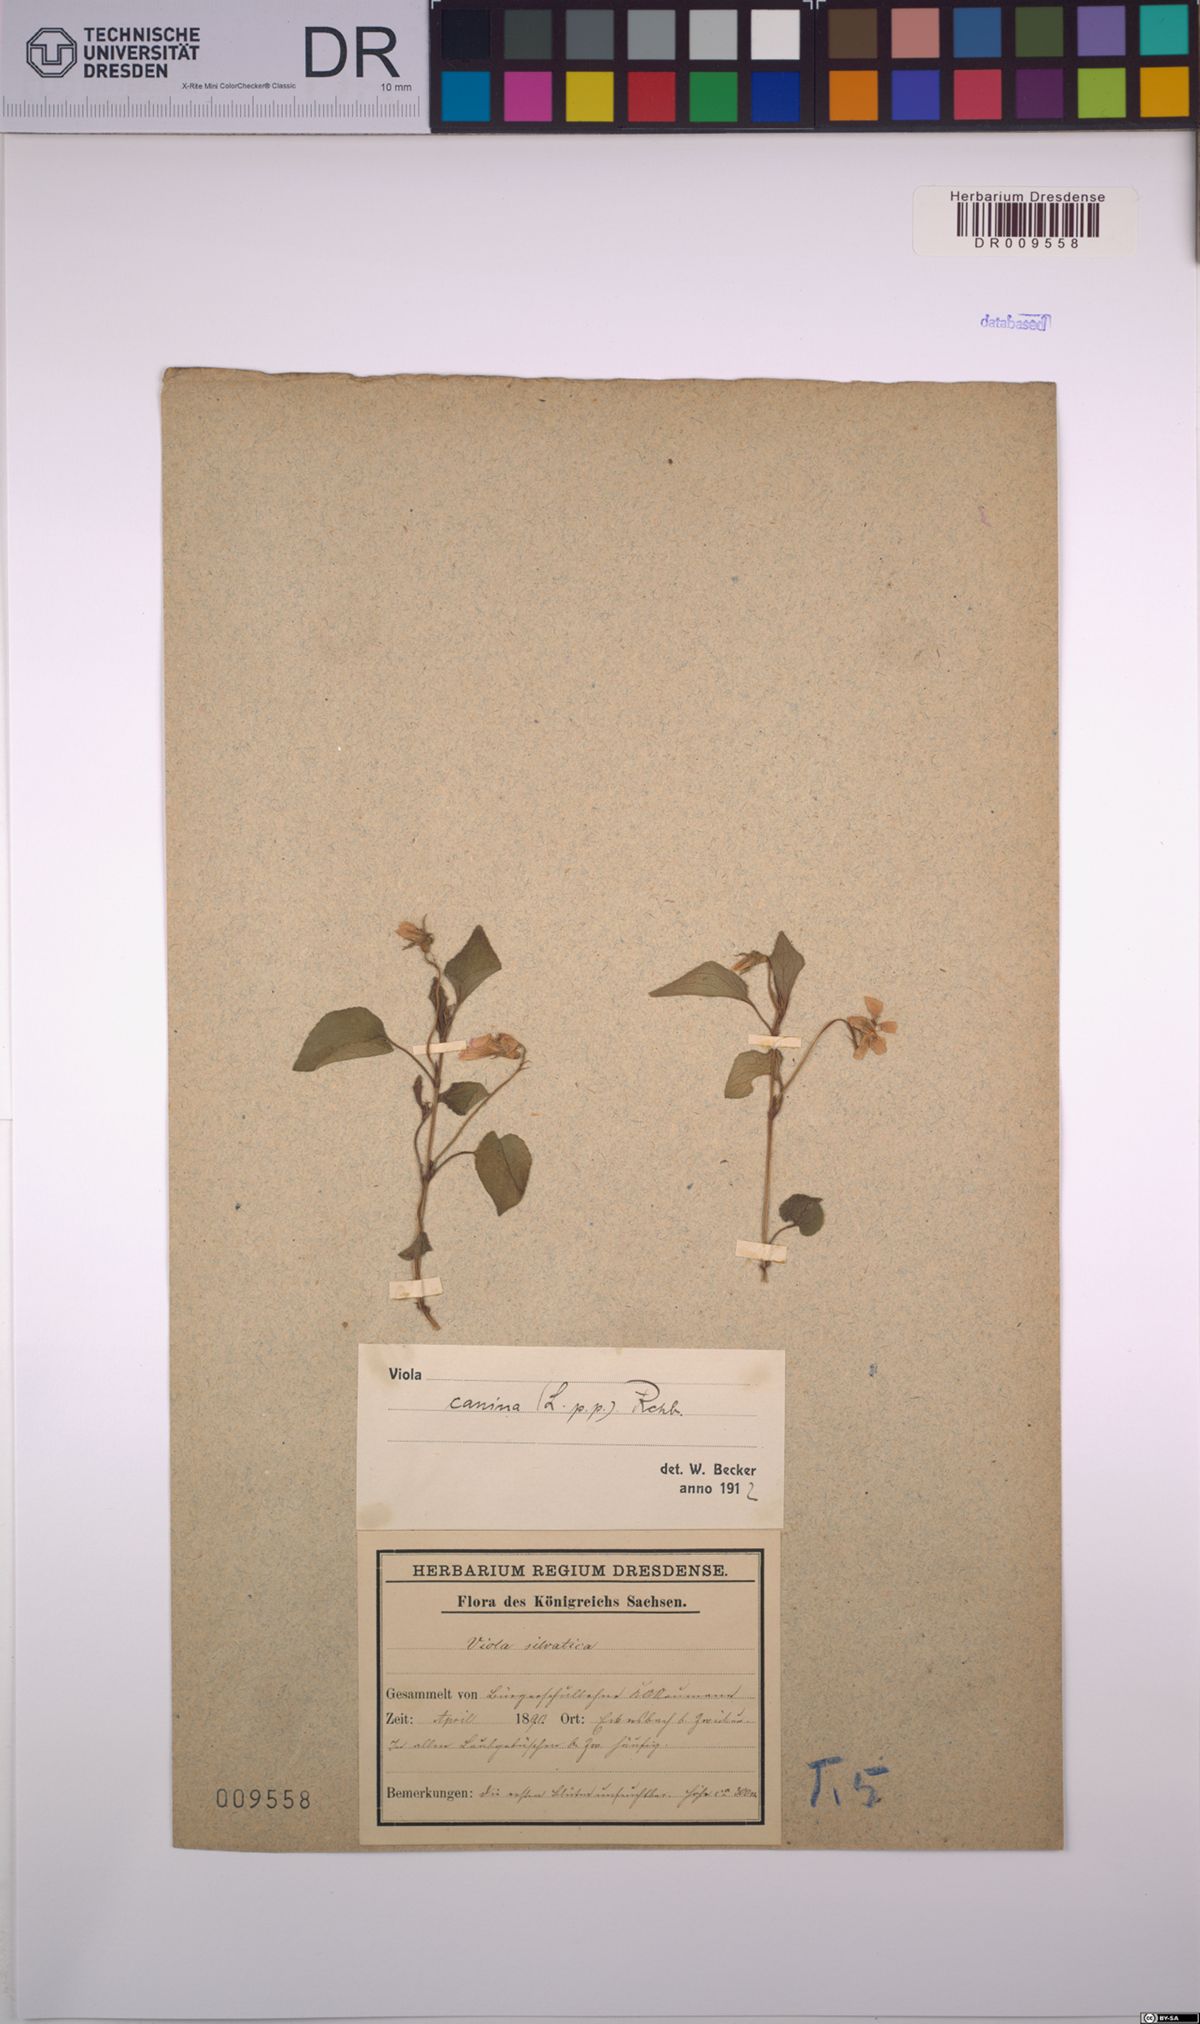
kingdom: Plantae
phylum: Tracheophyta
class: Magnoliopsida
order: Malpighiales
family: Violaceae
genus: Viola
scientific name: Viola canina
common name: Heath dog-violet
